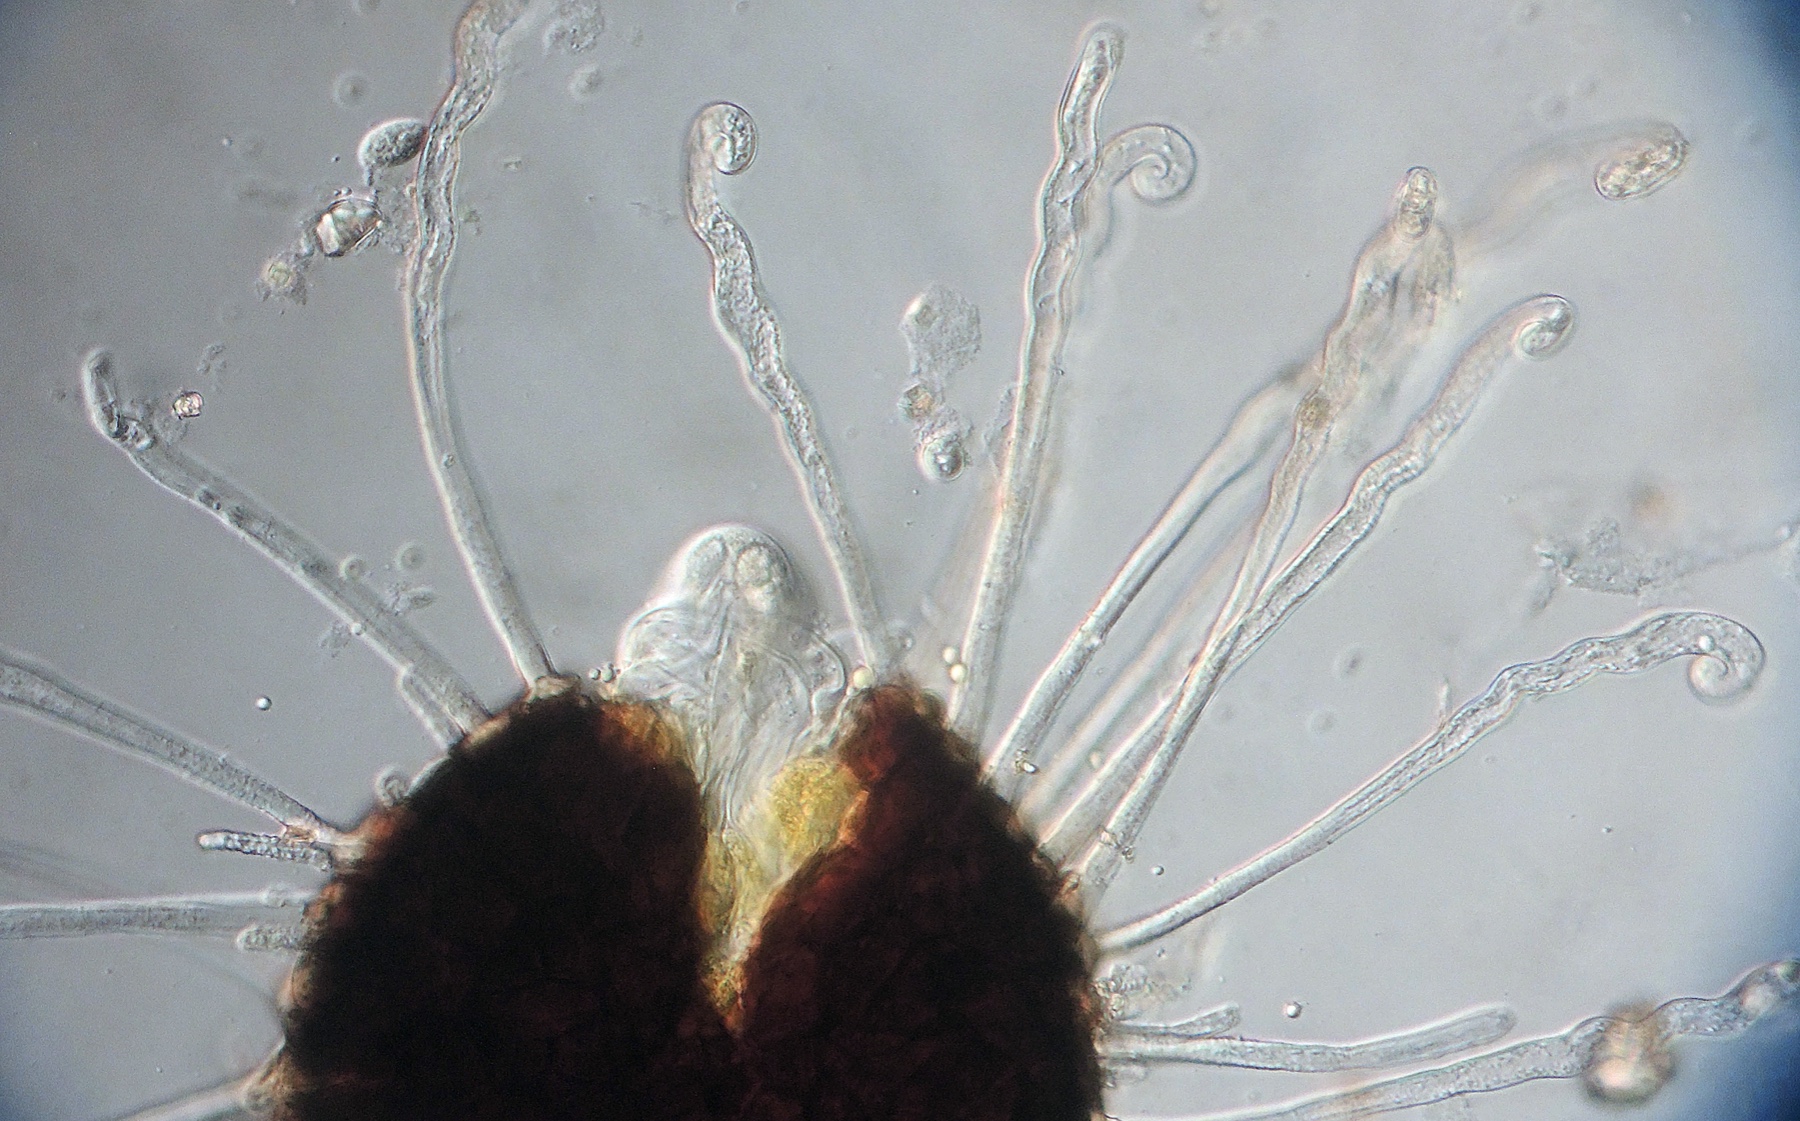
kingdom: Fungi
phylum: Ascomycota
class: Leotiomycetes
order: Helotiales
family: Erysiphaceae
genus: Erysiphe
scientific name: Erysiphe flexuosa
